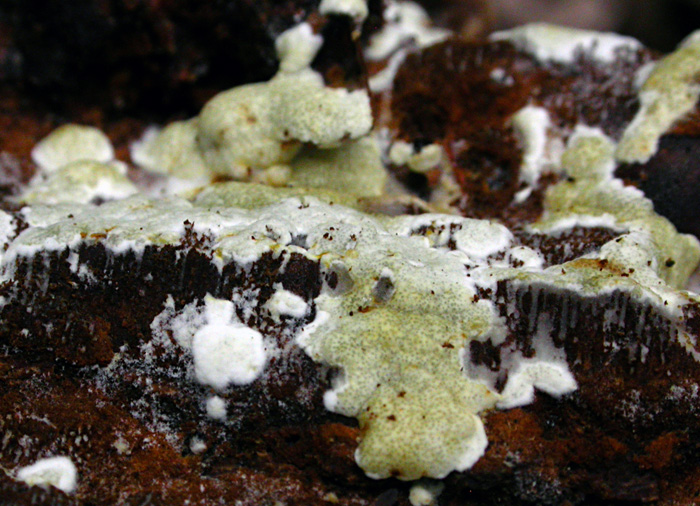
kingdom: Fungi
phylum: Ascomycota
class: Sordariomycetes
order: Hypocreales
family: Hypocreaceae
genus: Trichoderma
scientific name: Trichoderma phellinicola
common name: ildpore-kødkerne
